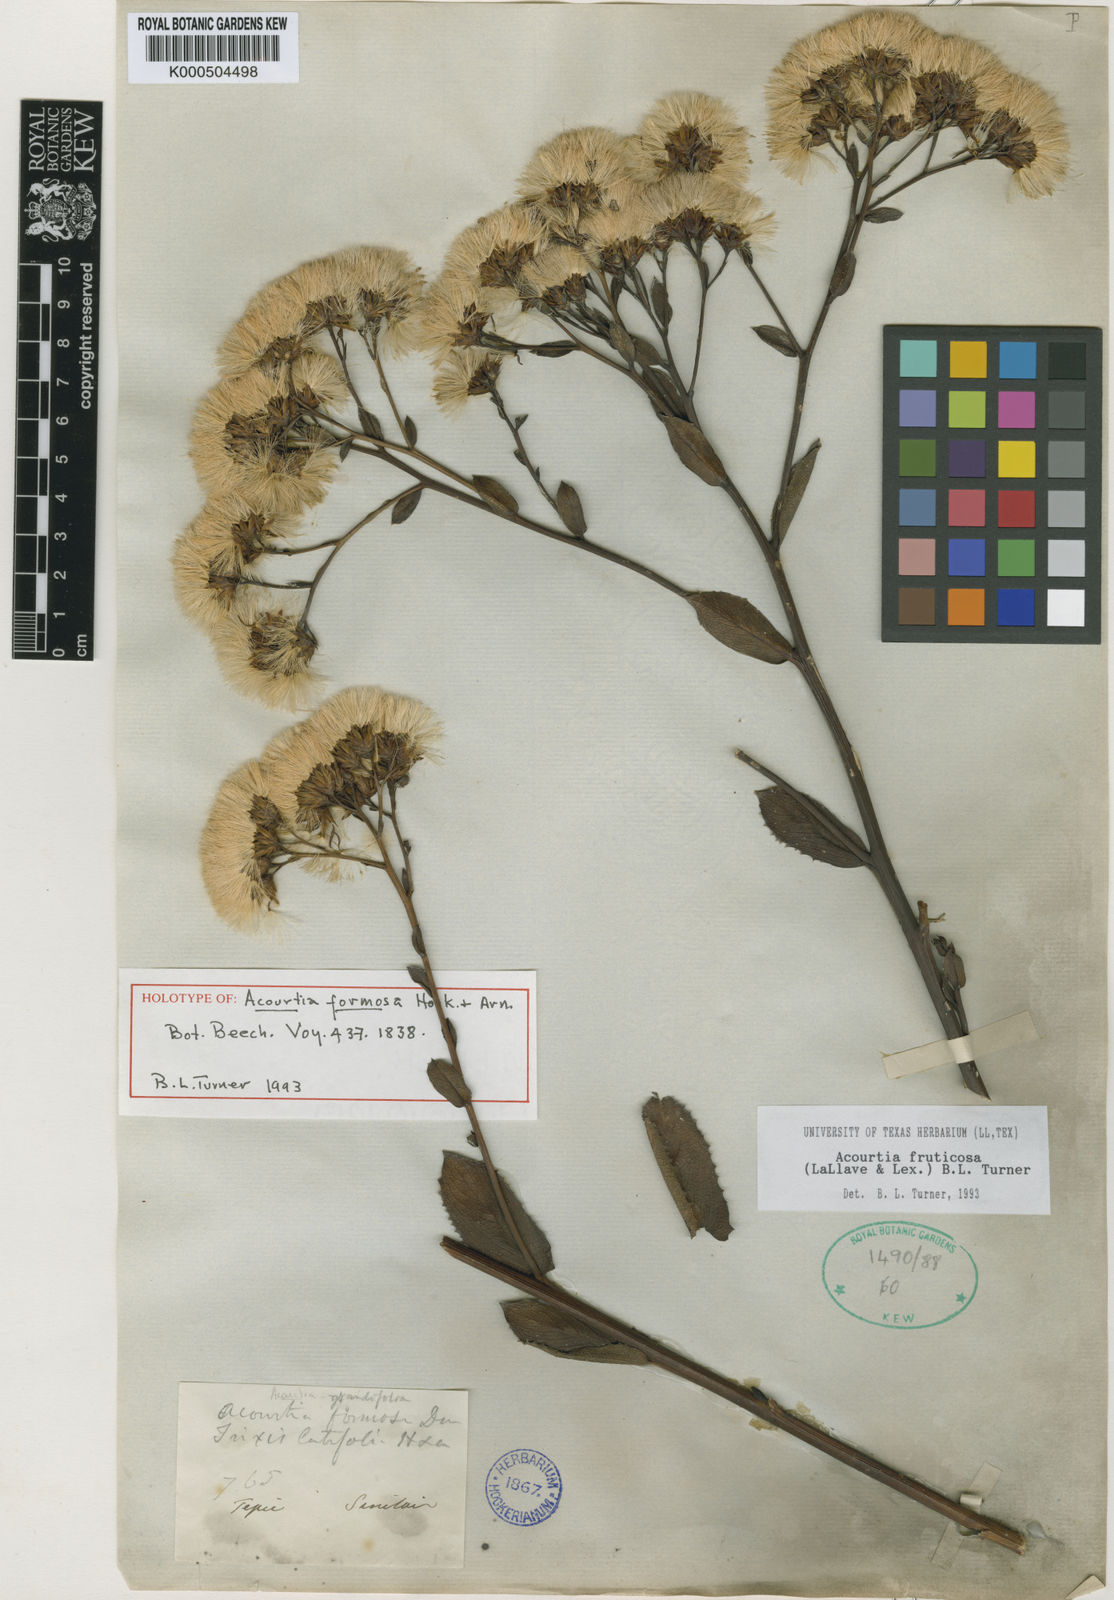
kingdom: Plantae
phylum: Tracheophyta
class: Magnoliopsida
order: Asterales
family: Asteraceae
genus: Acourtia
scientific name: Acourtia
